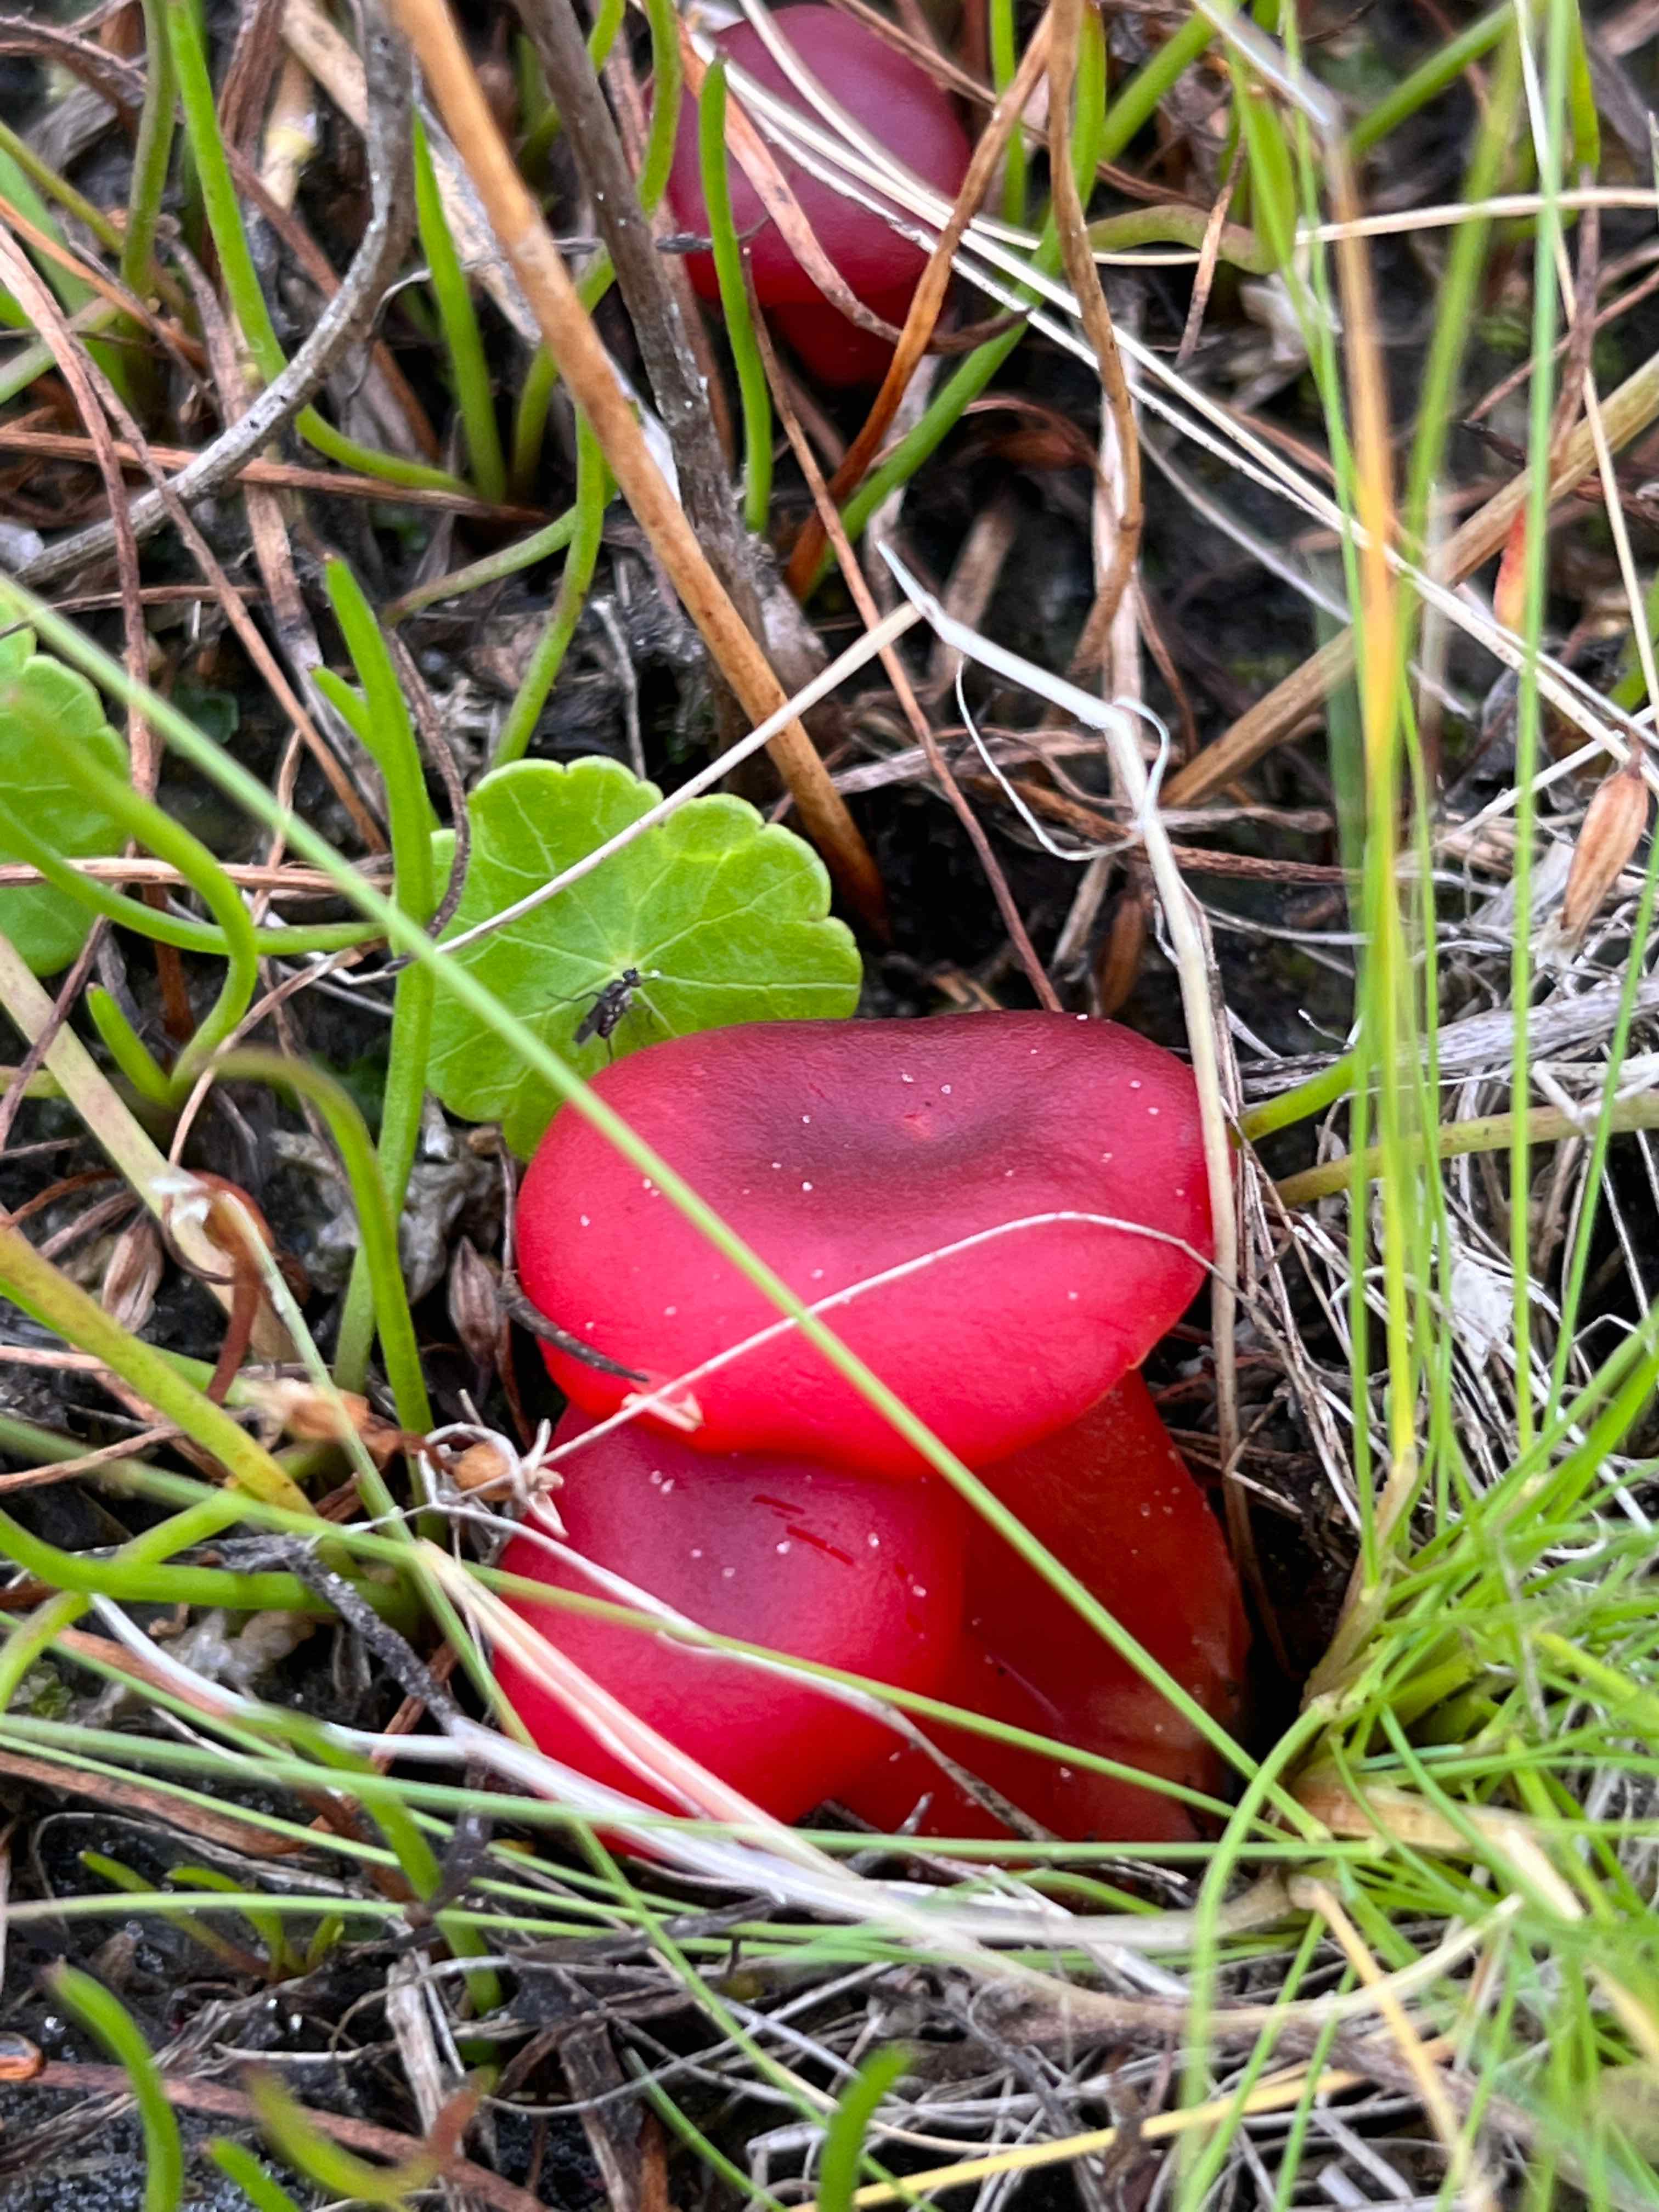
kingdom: Fungi
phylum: Basidiomycota
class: Agaricomycetes
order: Agaricales
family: Hygrophoraceae
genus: Hygrocybe
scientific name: Hygrocybe phaeococcinea
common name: sortdugget vokshat
